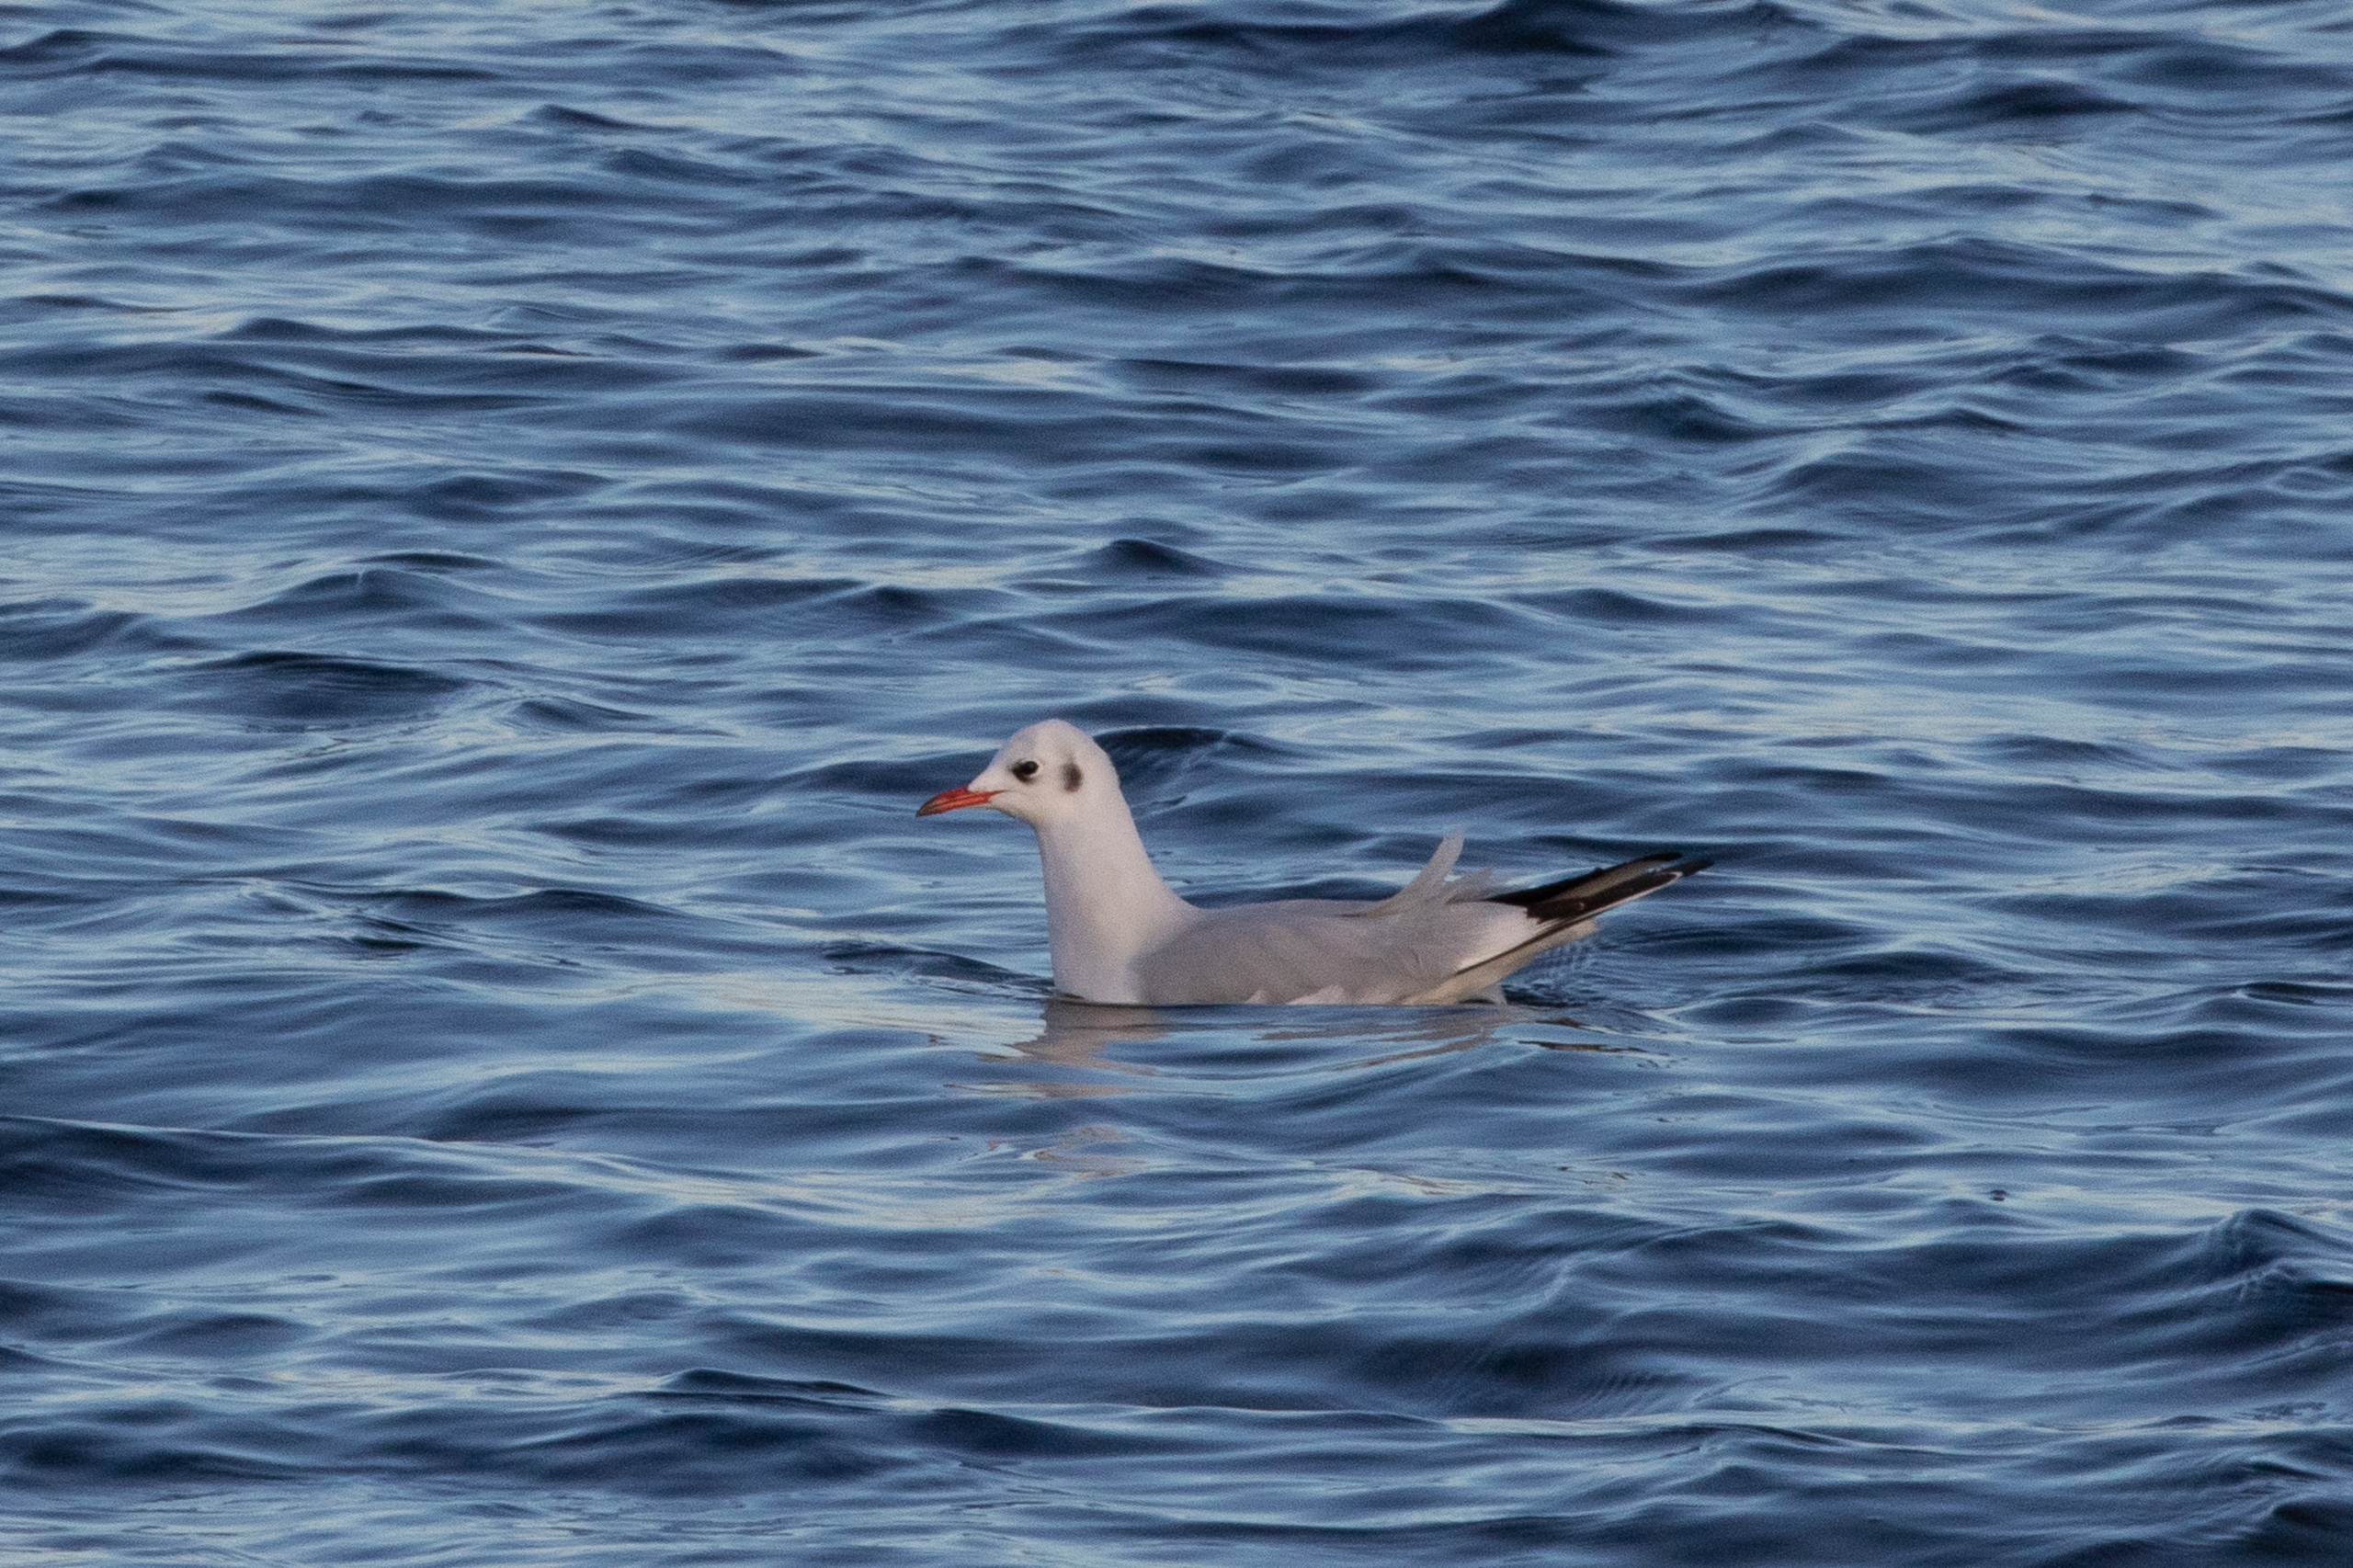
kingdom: Animalia
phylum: Chordata
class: Aves
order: Charadriiformes
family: Laridae
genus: Chroicocephalus
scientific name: Chroicocephalus ridibundus
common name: Hættemåge
